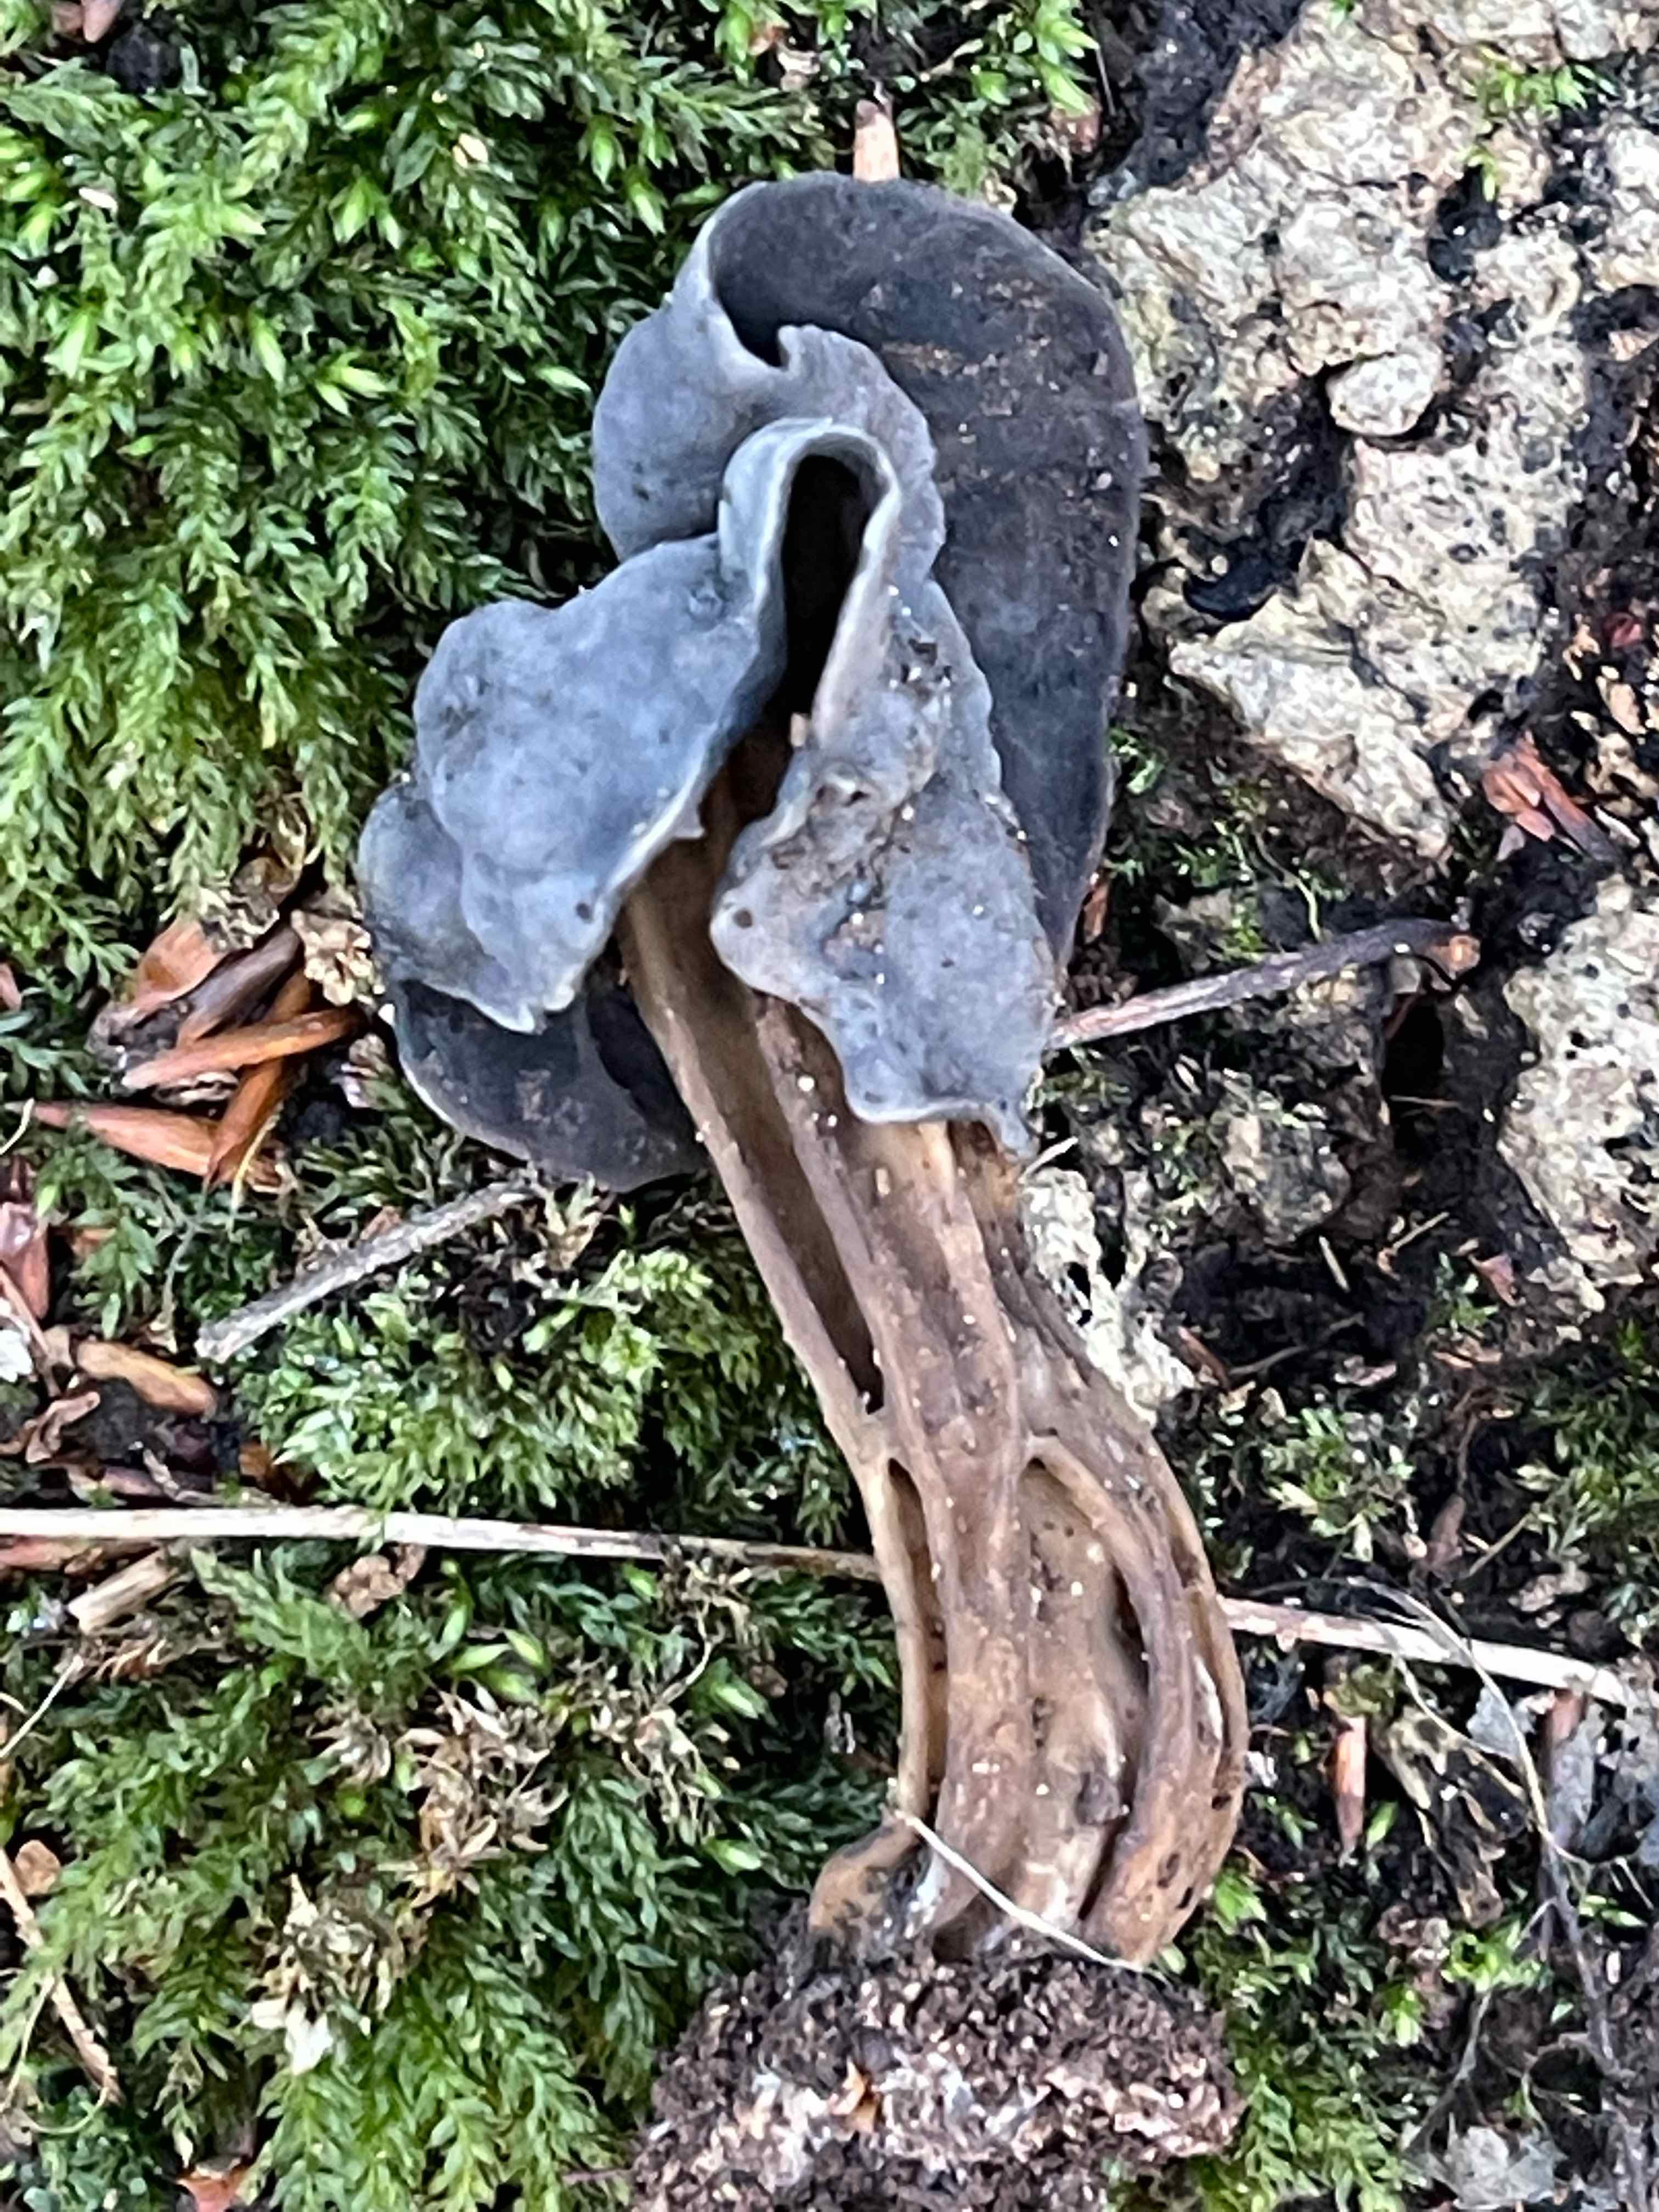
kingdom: Fungi
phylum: Ascomycota
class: Pezizomycetes
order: Pezizales
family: Helvellaceae
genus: Helvella
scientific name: Helvella lacunosa
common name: grubet foldhat
